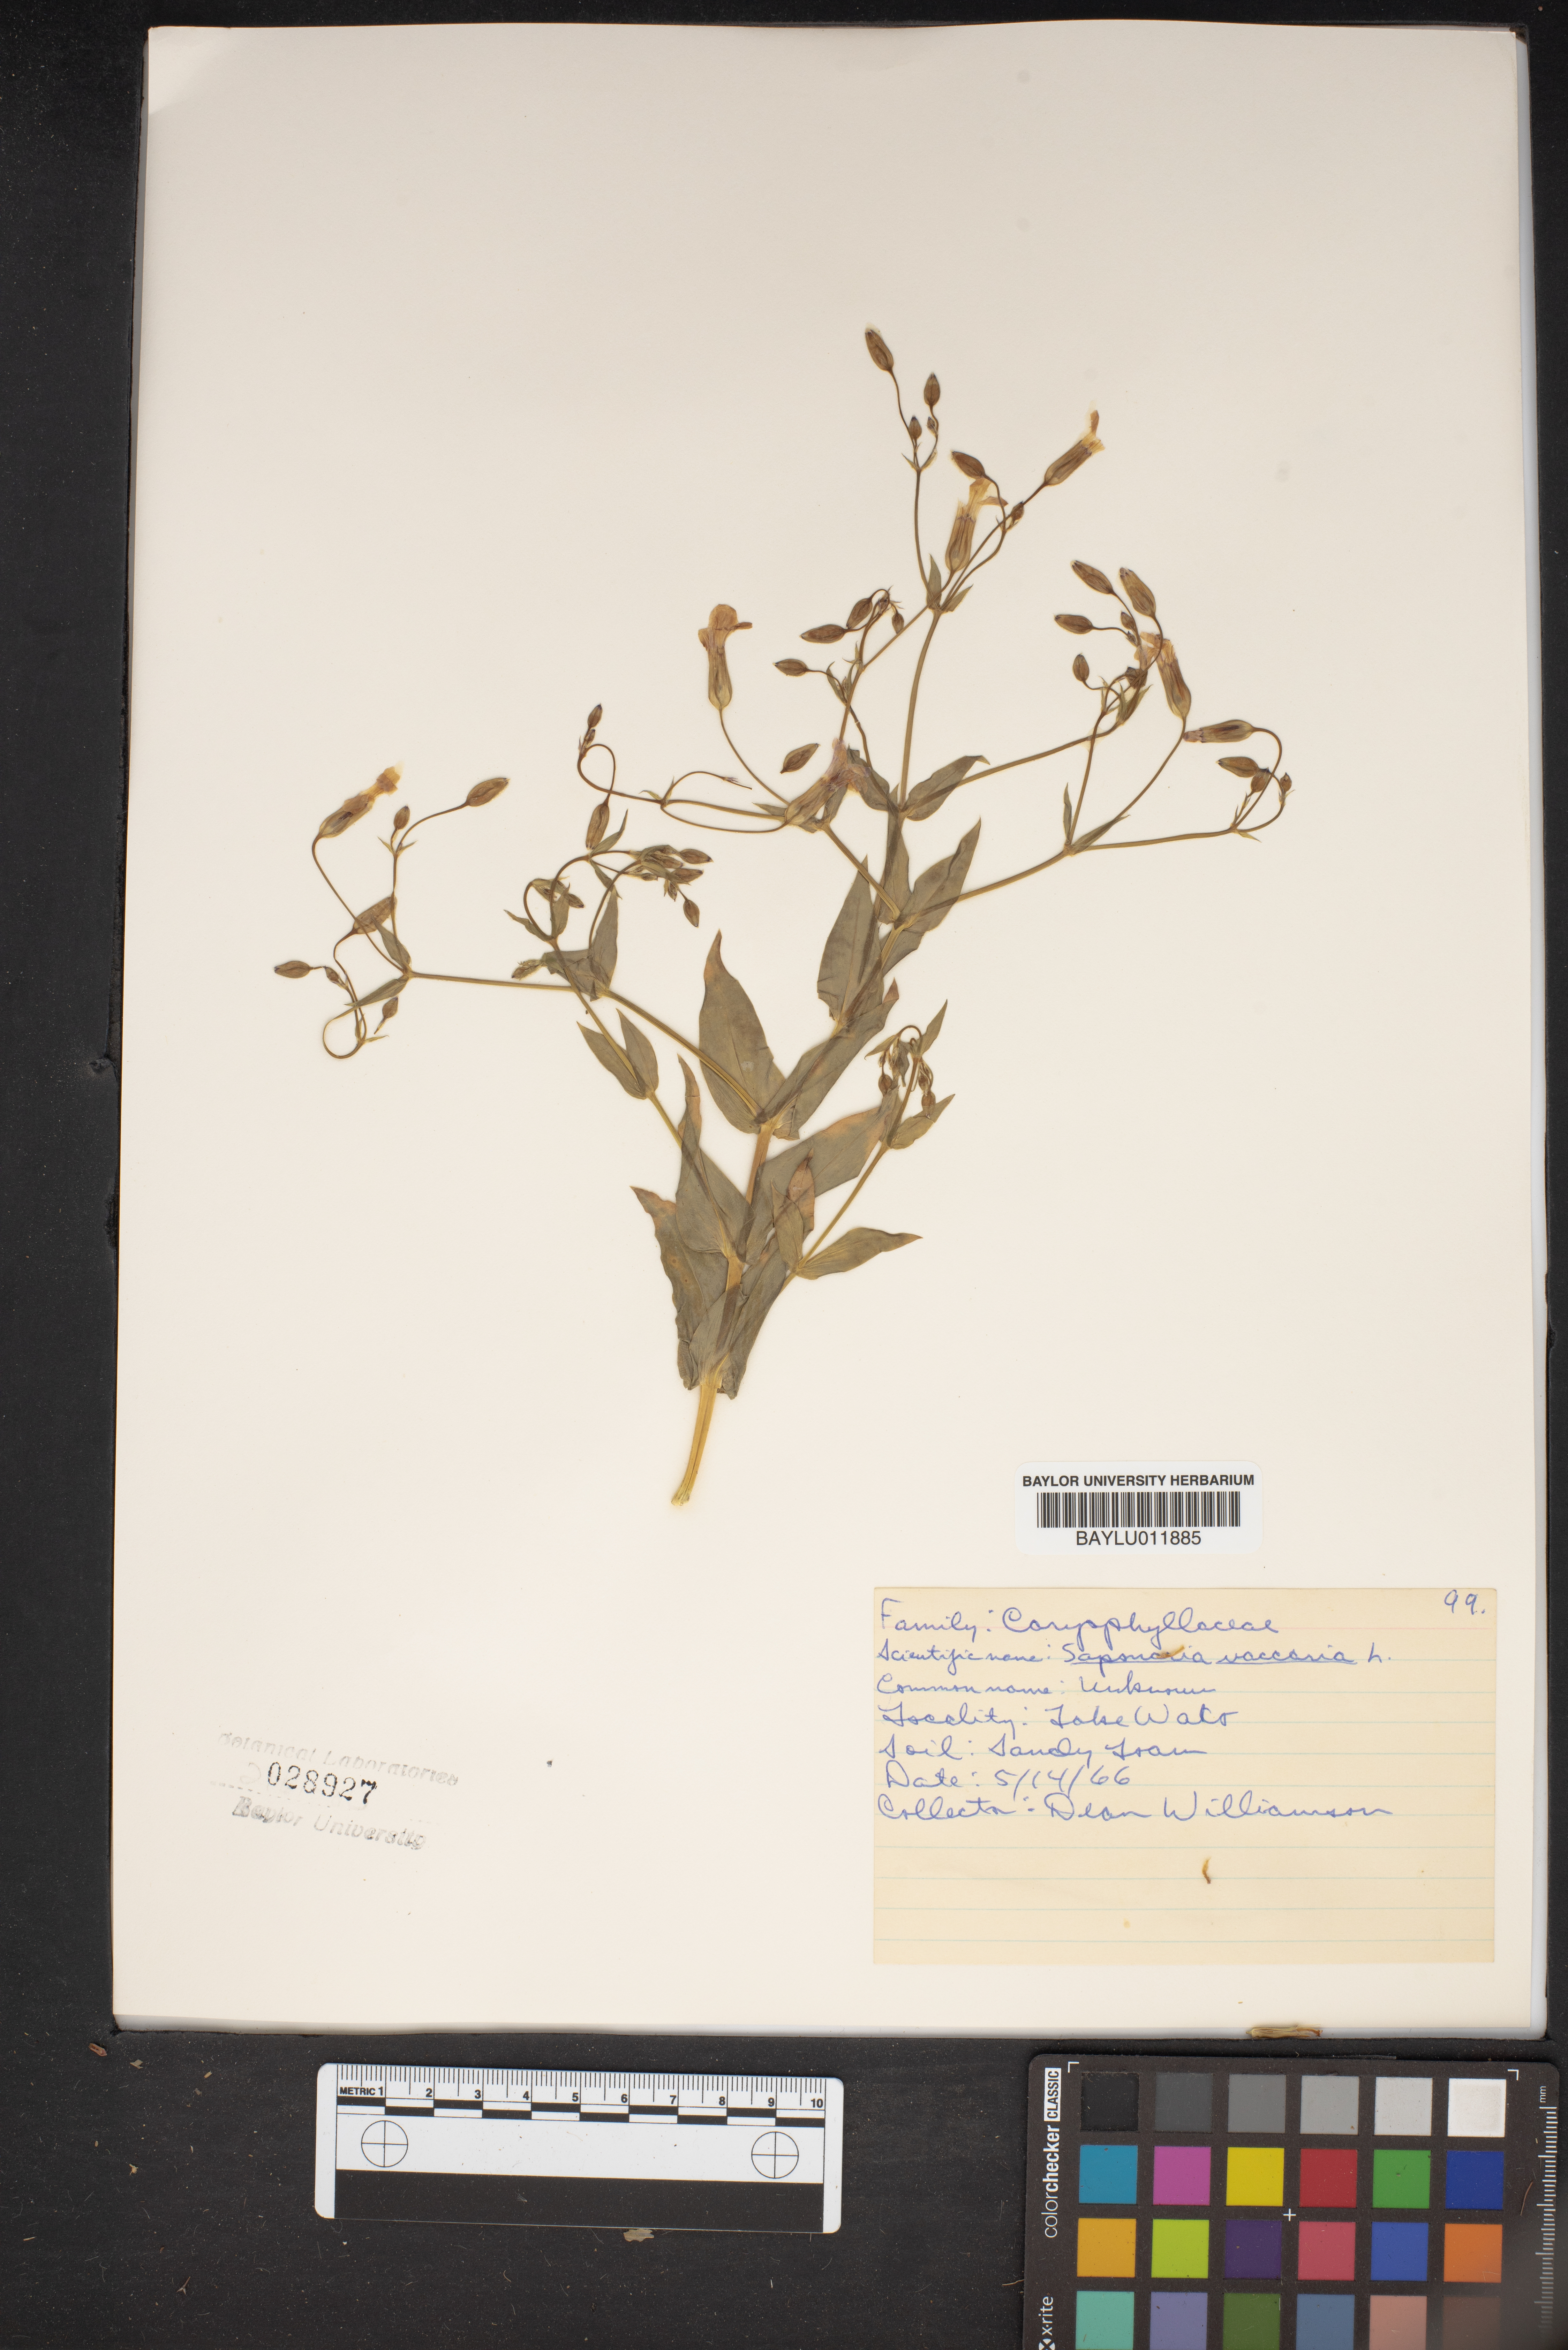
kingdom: Plantae
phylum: Tracheophyta
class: Magnoliopsida
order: Caryophyllales
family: Caryophyllaceae
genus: Gypsophila
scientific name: Gypsophila vaccaria
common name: Cow soapwort
